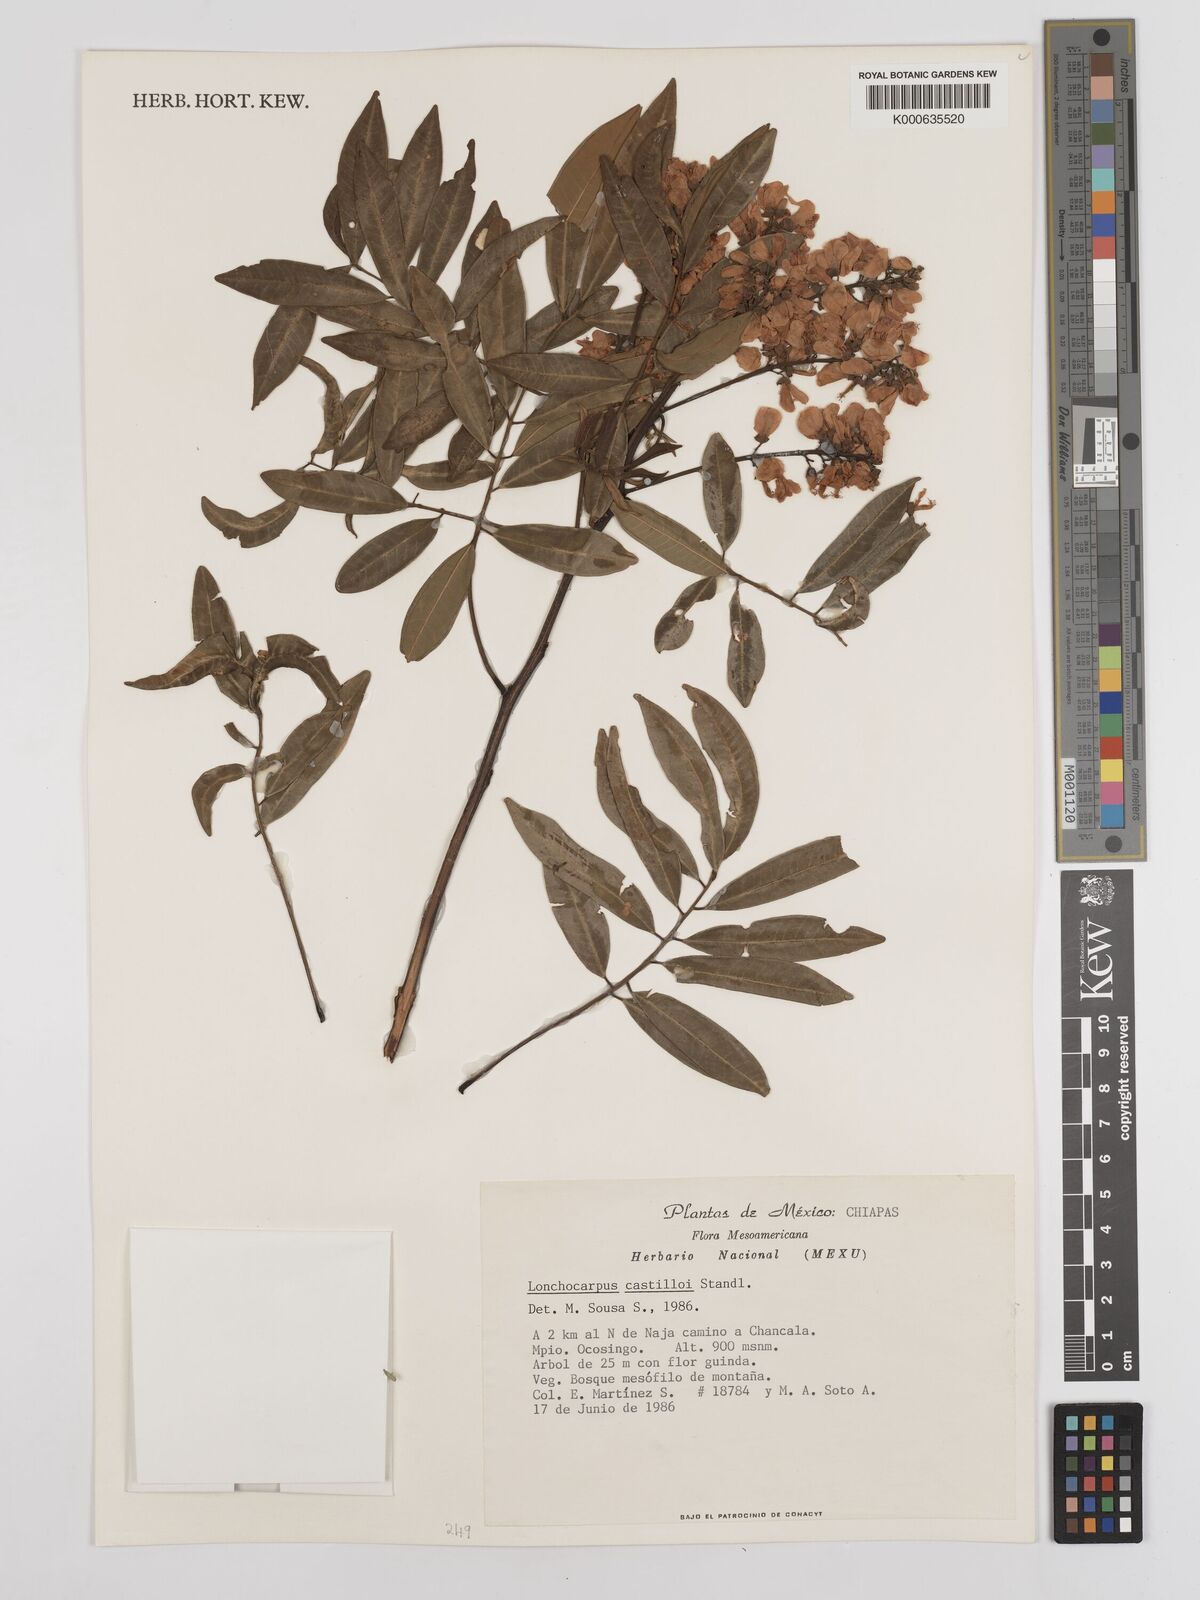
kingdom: Plantae
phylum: Tracheophyta
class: Magnoliopsida
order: Fabales
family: Fabaceae
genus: Lonchocarpus
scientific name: Lonchocarpus castilloi
